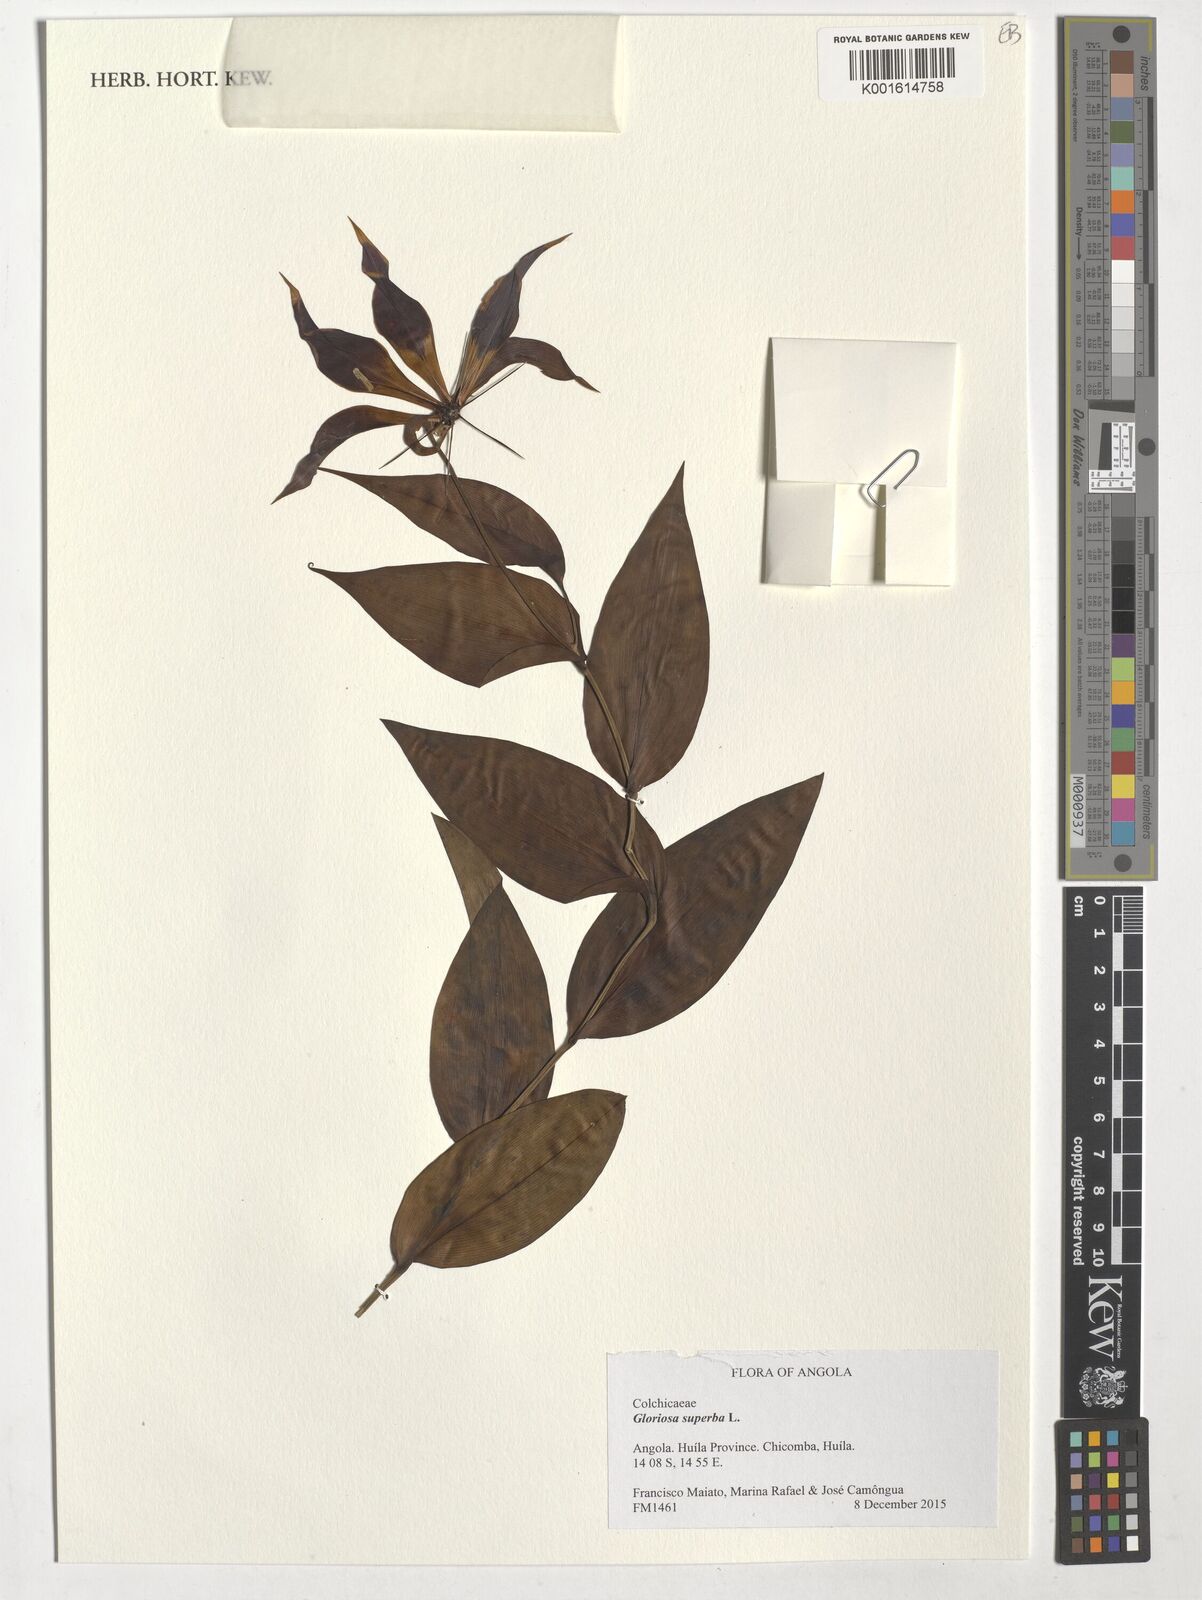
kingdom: Plantae
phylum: Tracheophyta
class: Liliopsida
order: Liliales
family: Colchicaceae
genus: Gloriosa
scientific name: Gloriosa superba
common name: Flame lily
